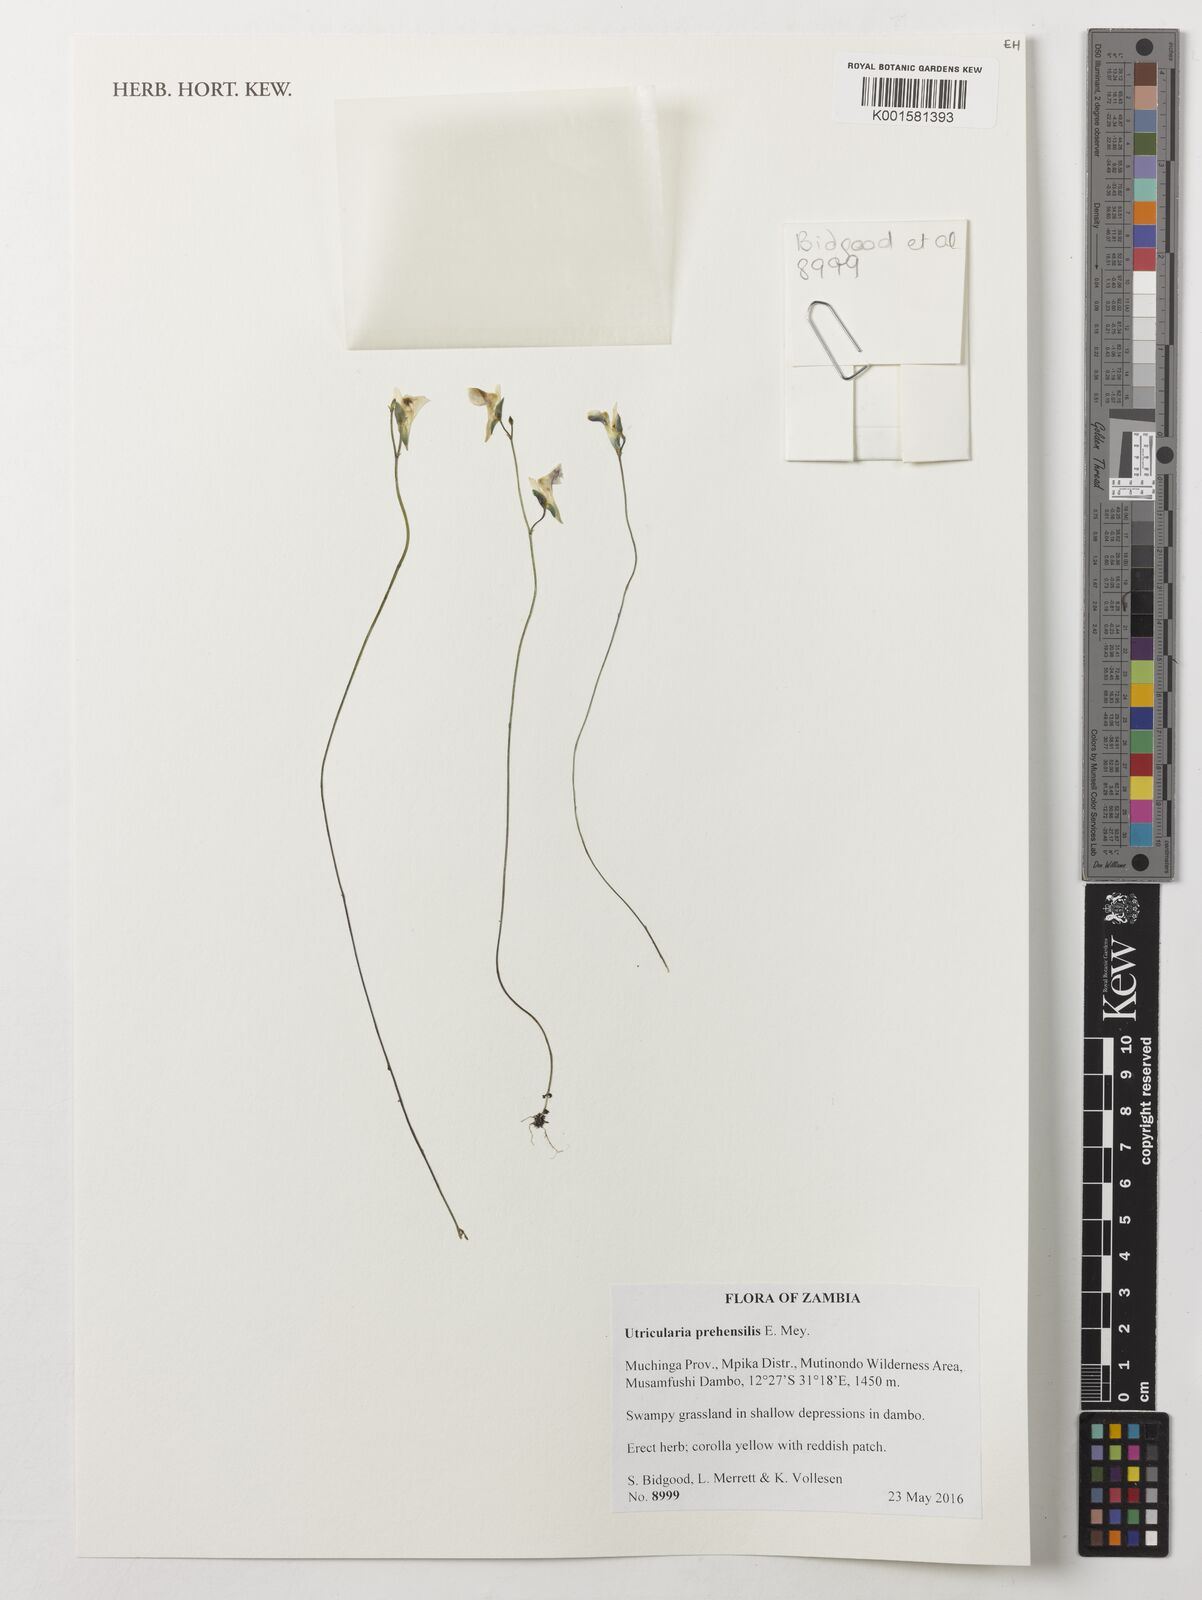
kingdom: Plantae
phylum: Tracheophyta
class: Magnoliopsida
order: Lamiales
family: Lentibulariaceae
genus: Utricularia
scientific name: Utricularia prehensilis
